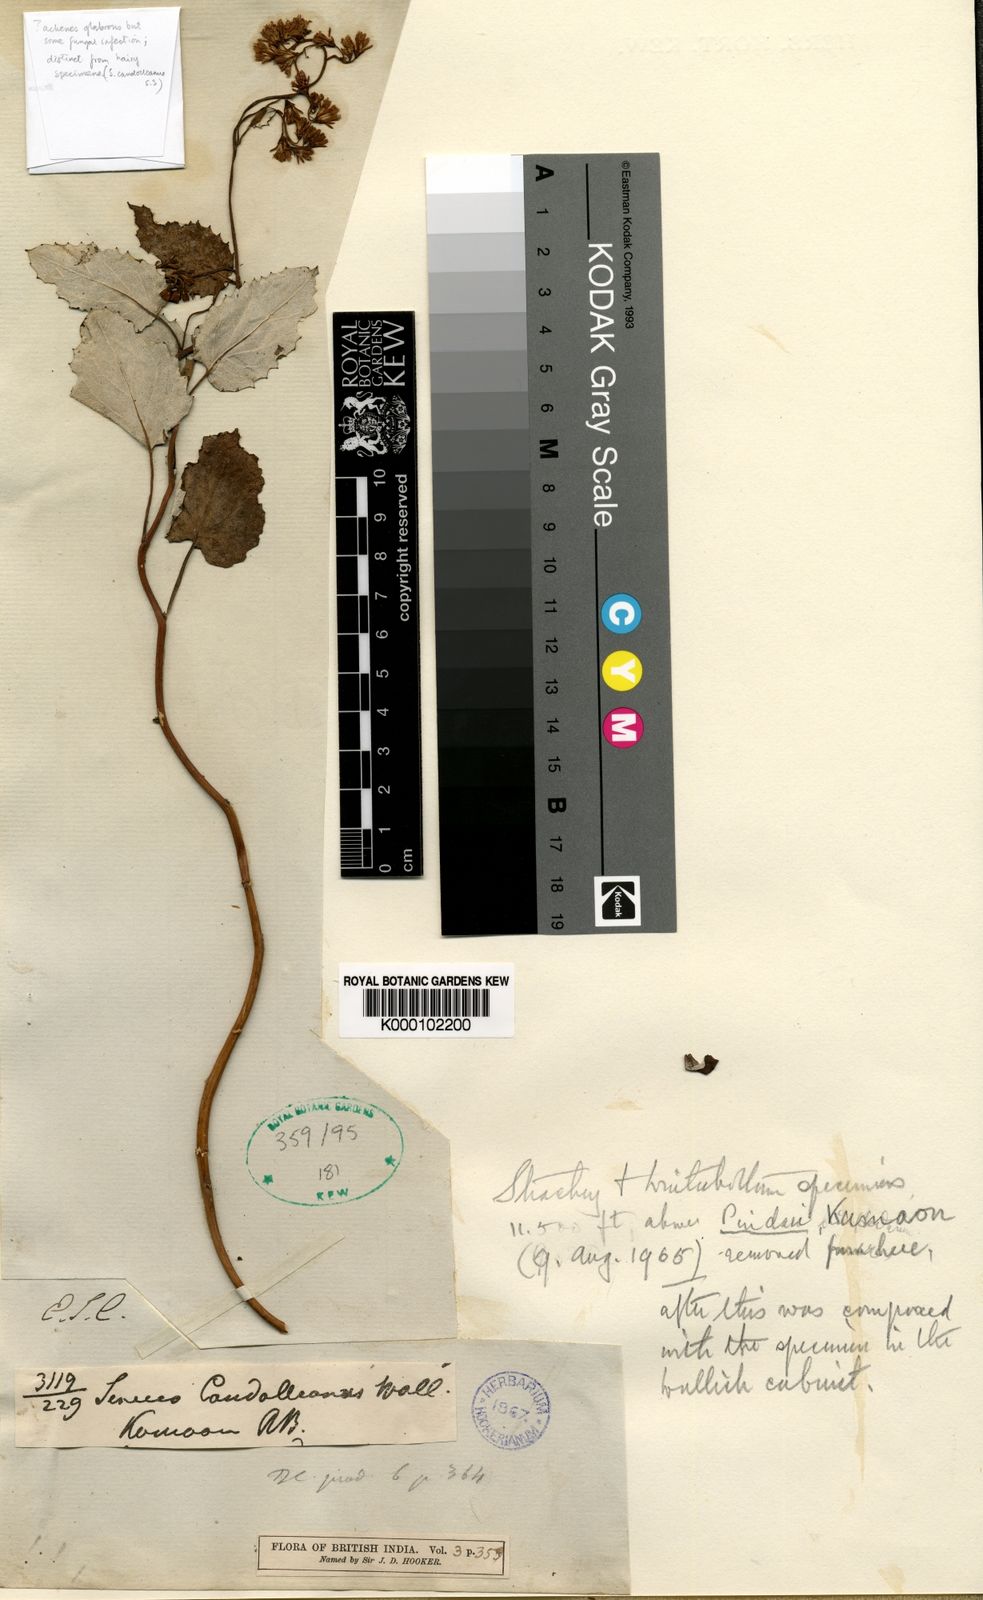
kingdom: Plantae
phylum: Tracheophyta
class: Magnoliopsida
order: Asterales
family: Asteraceae
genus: Senecio
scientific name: Senecio candolleanus
